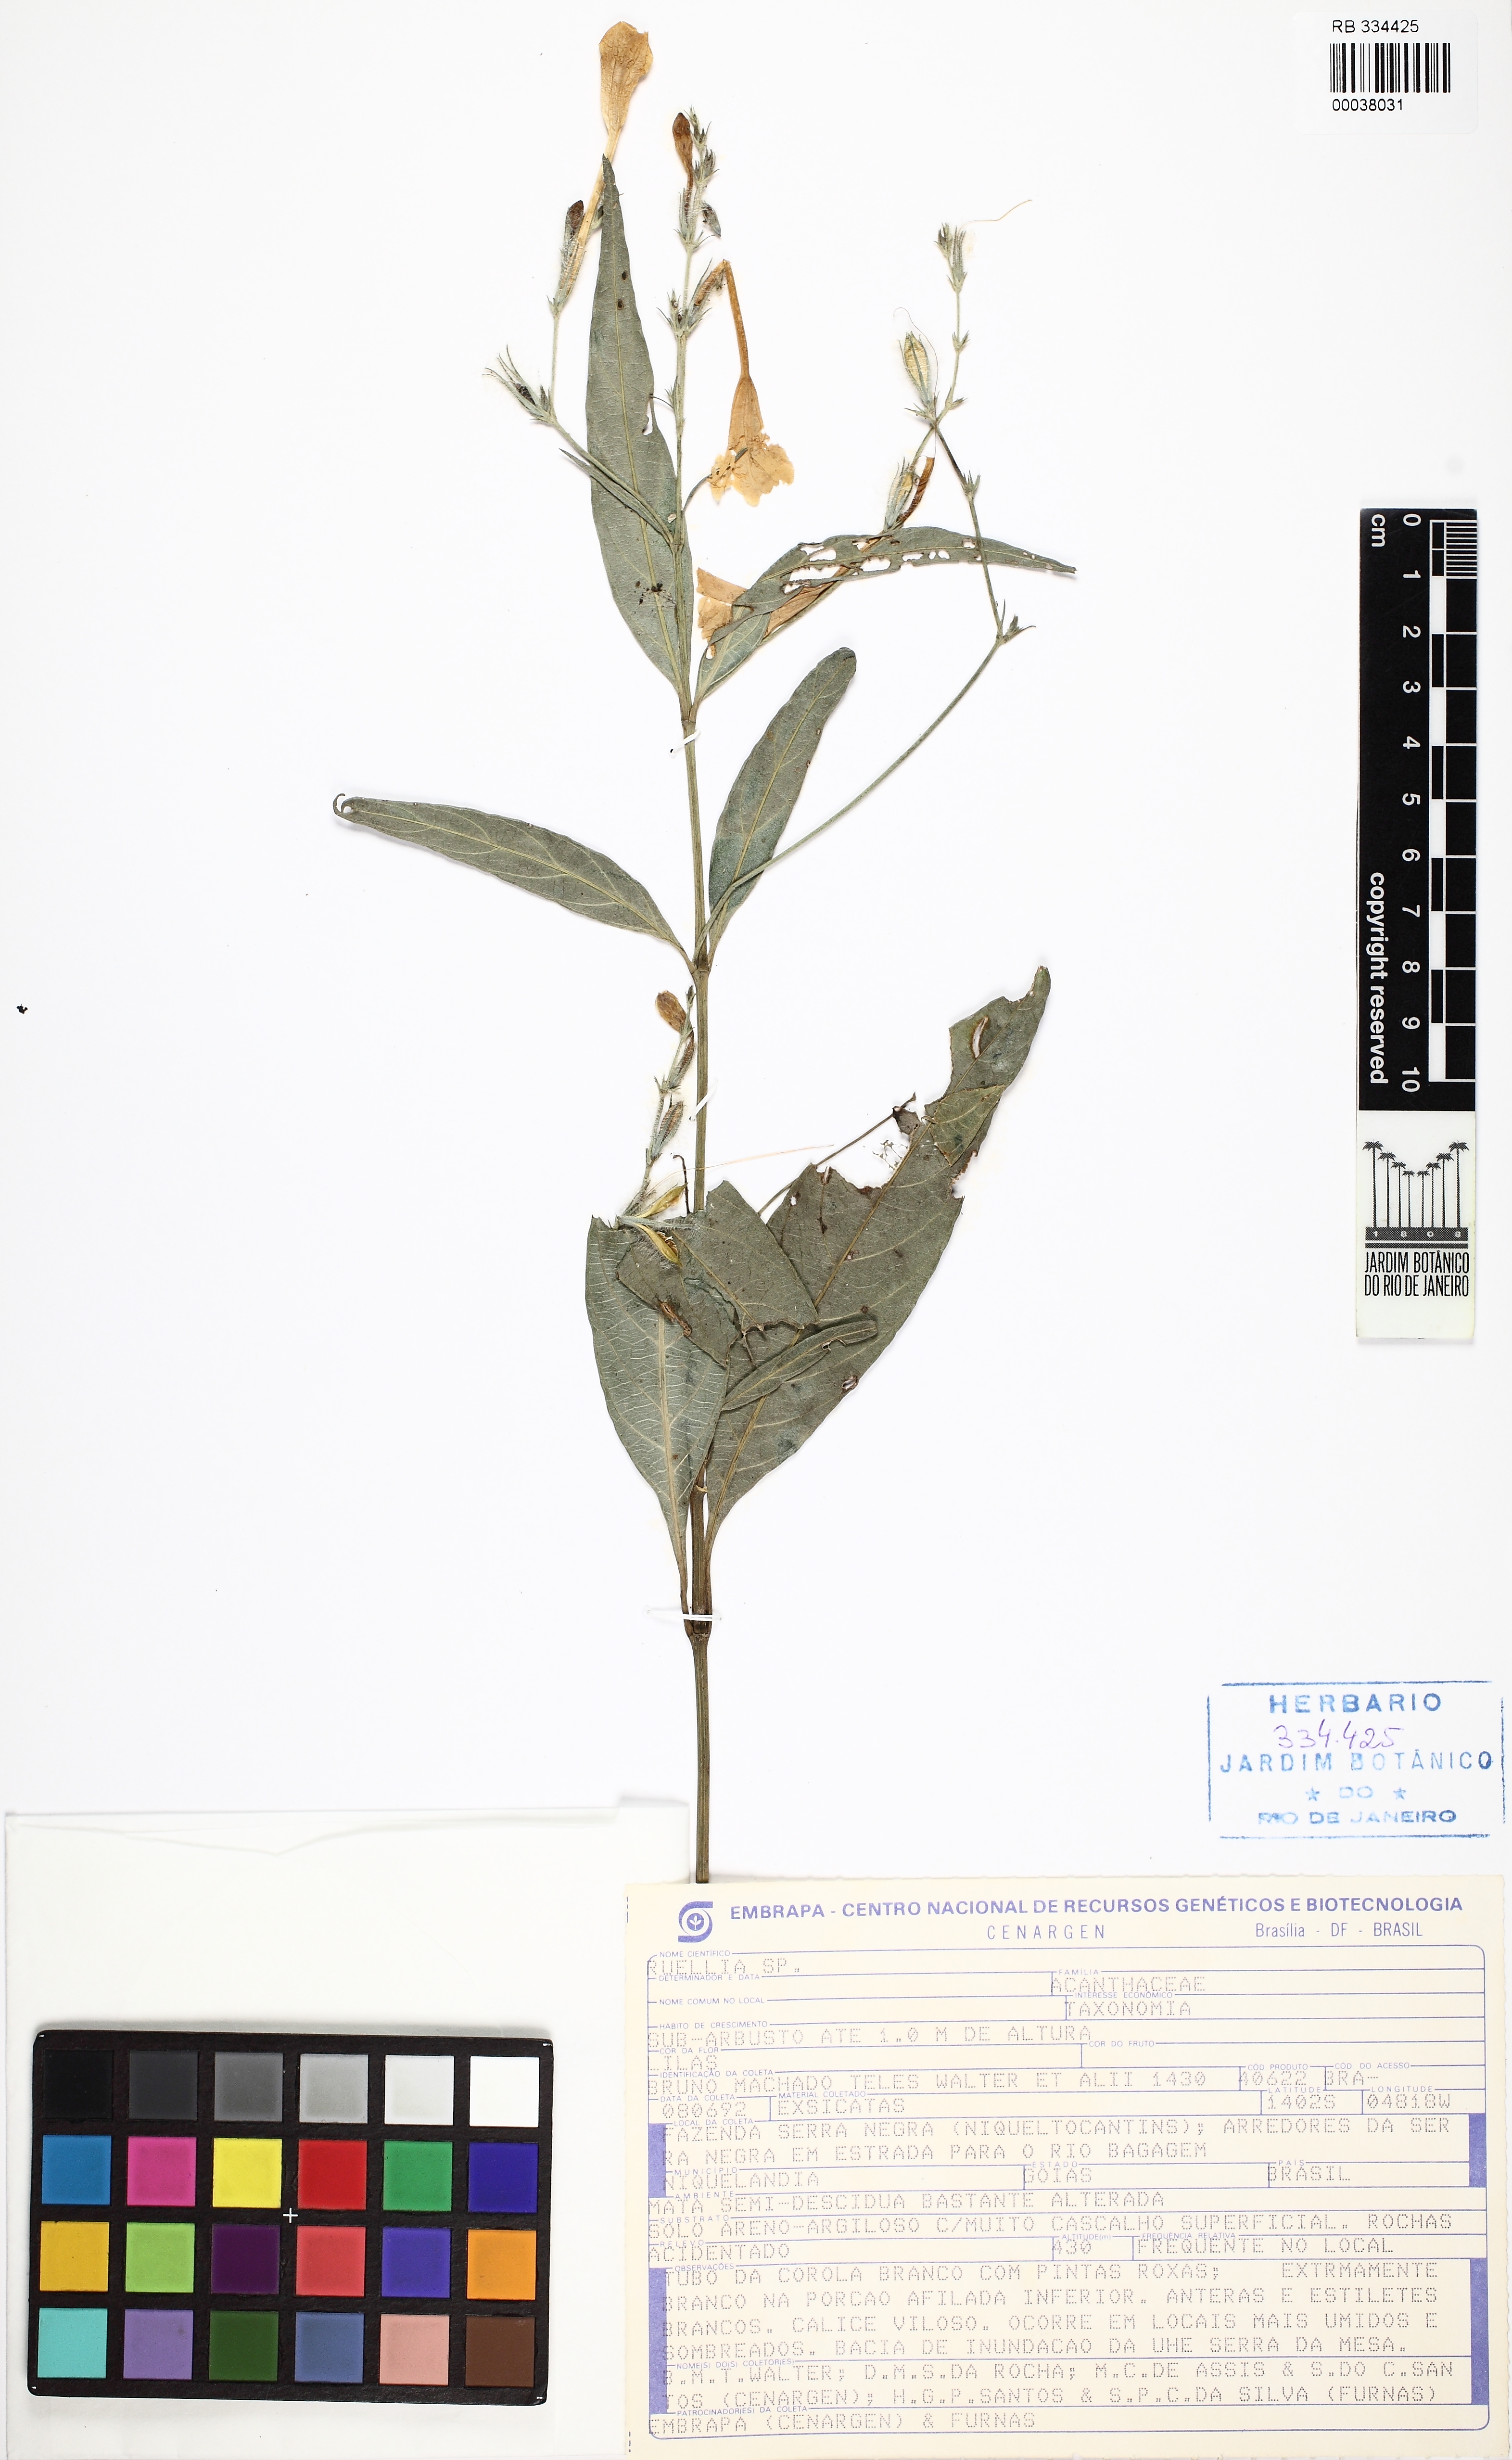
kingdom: Plantae
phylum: Tracheophyta
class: Magnoliopsida
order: Lamiales
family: Acanthaceae
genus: Ruellia
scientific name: Ruellia costata
